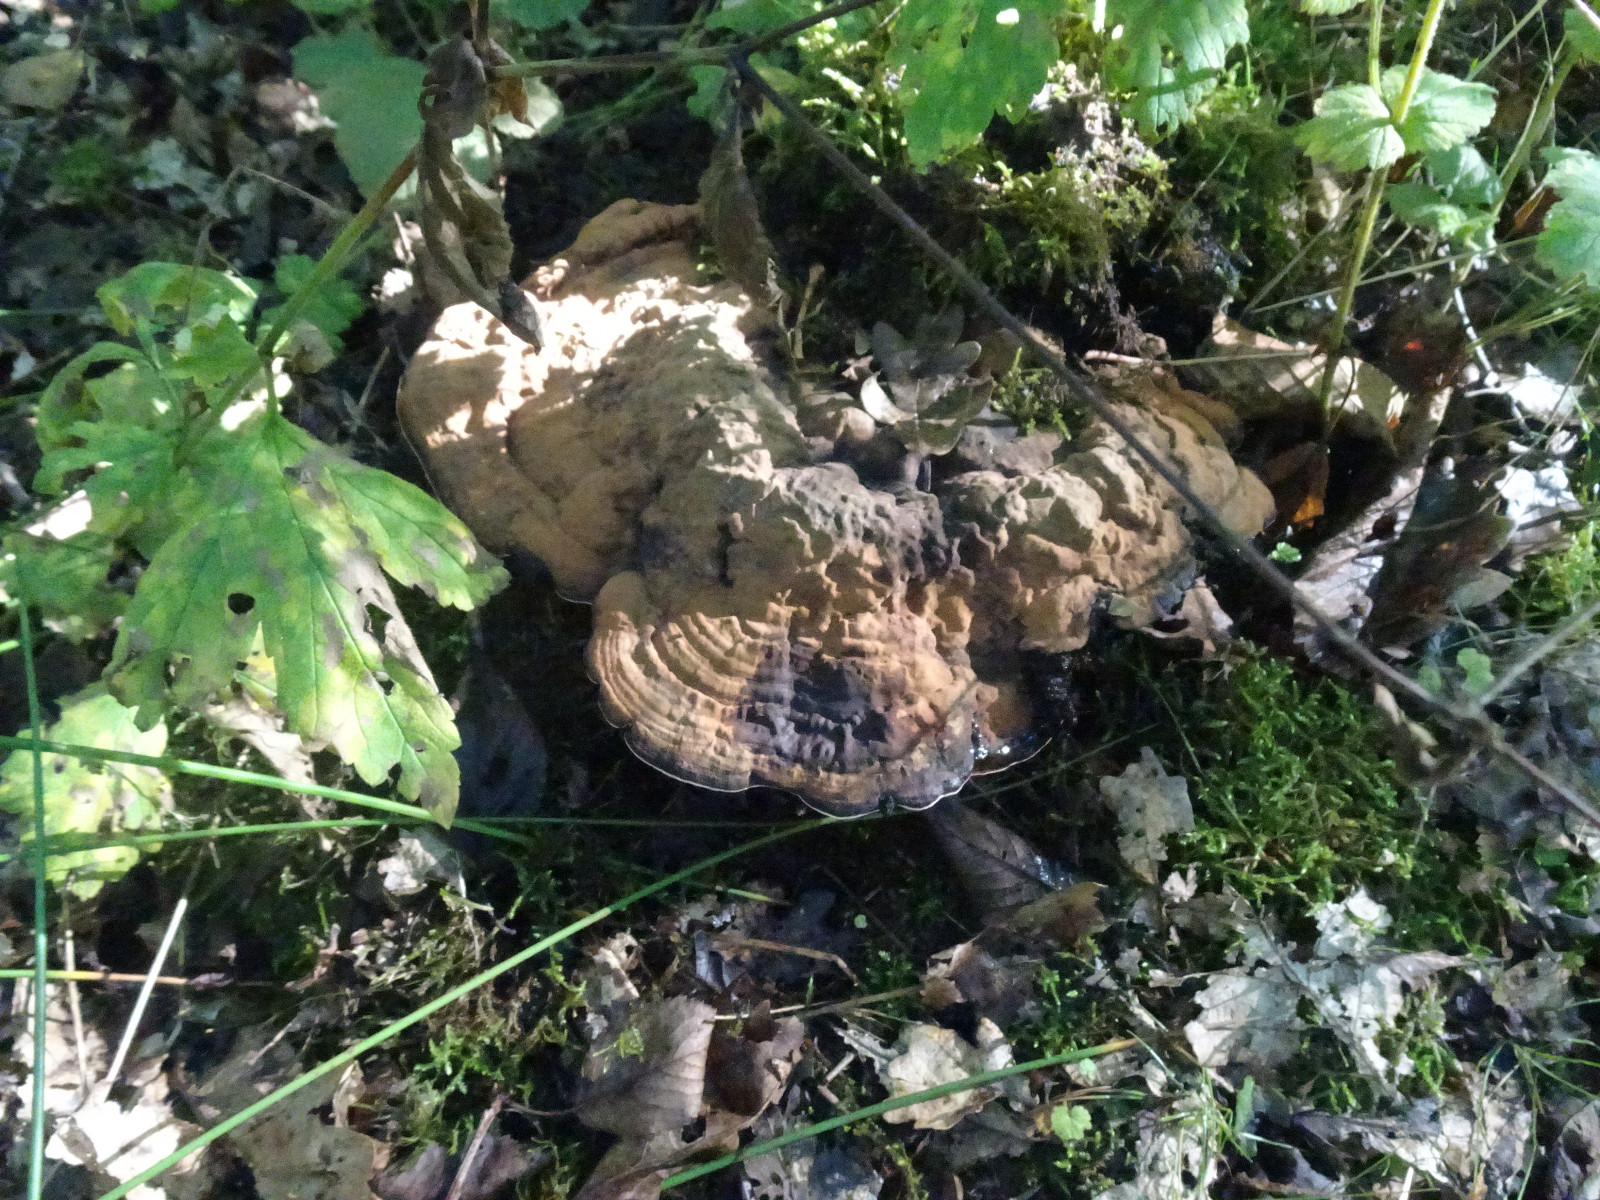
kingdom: Fungi
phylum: Basidiomycota
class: Agaricomycetes
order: Polyporales
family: Polyporaceae
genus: Ganoderma
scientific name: Ganoderma applanatum
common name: flad lakporesvamp
